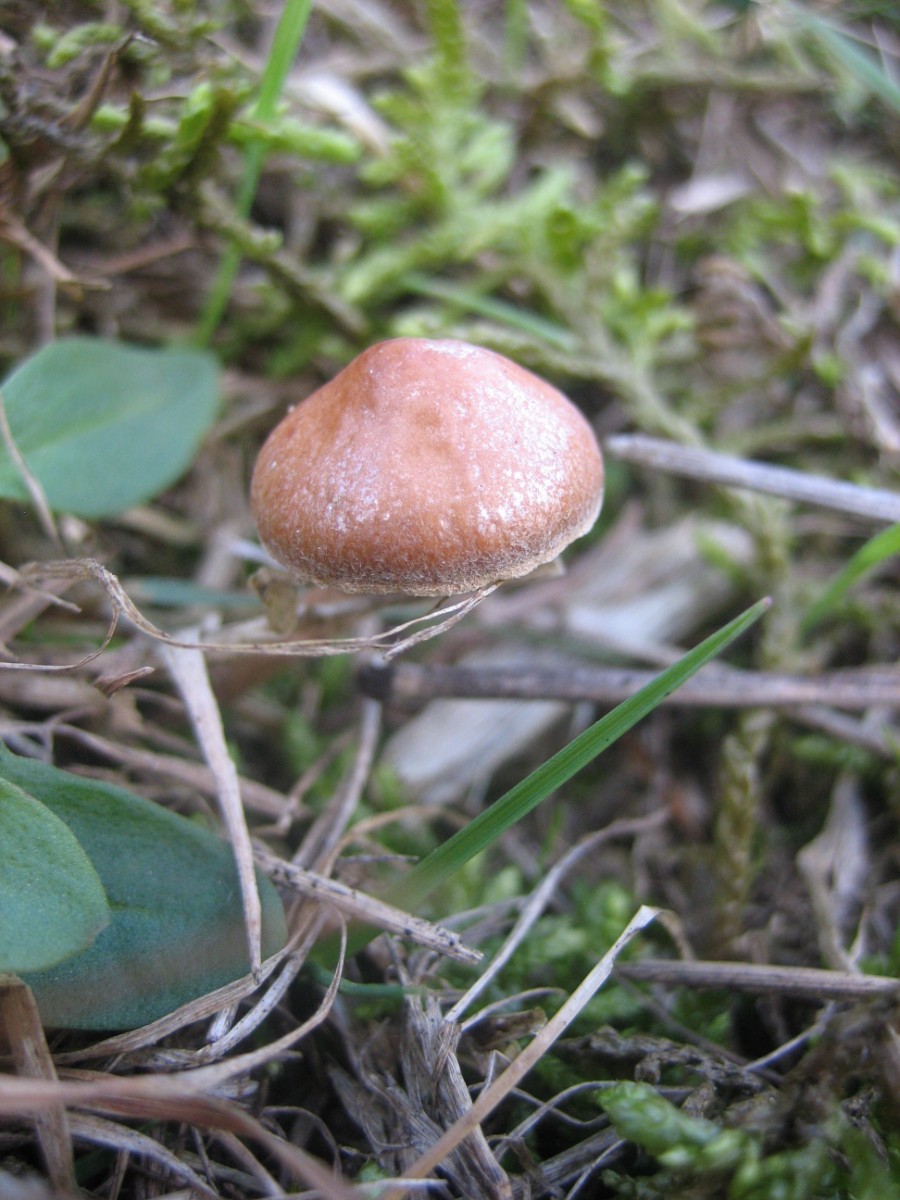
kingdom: Fungi
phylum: Basidiomycota
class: Agaricomycetes
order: Agaricales
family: Strophariaceae
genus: Deconica
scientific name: Deconica
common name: stråhat
